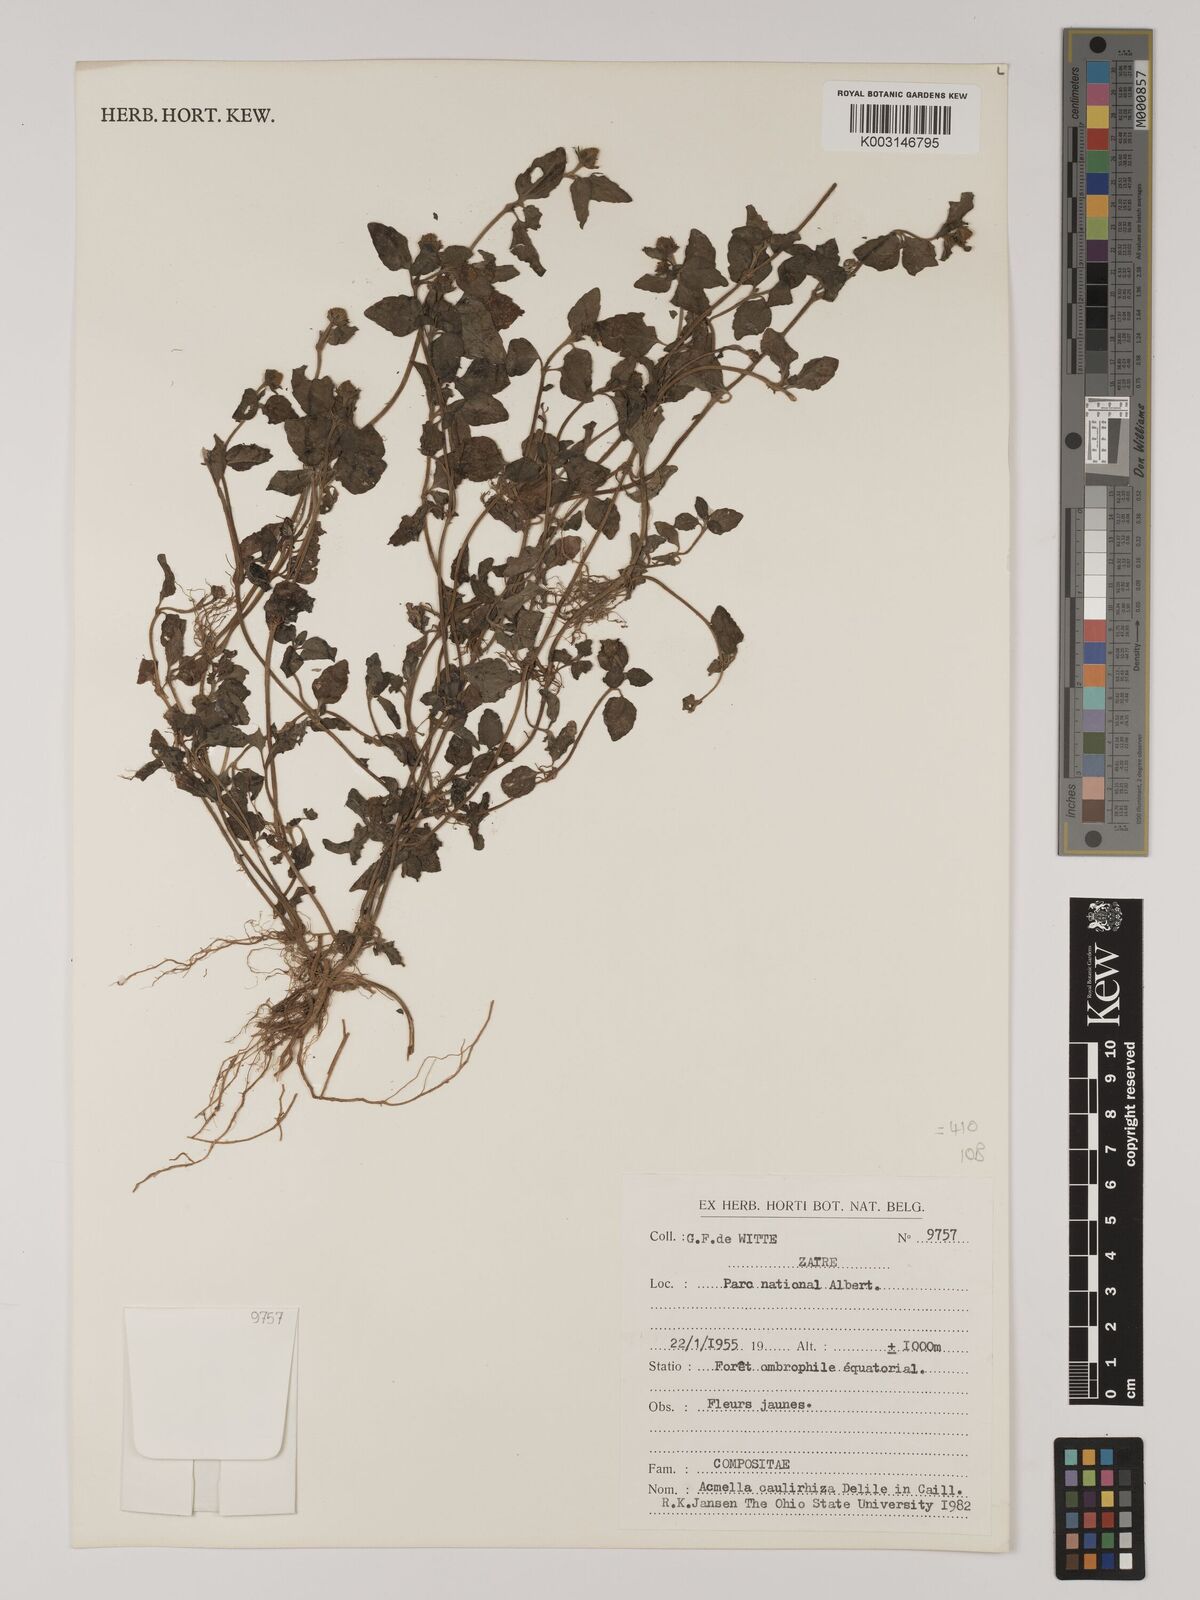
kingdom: Plantae
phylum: Tracheophyta
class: Magnoliopsida
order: Asterales
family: Asteraceae
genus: Acmella
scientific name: Acmella caulirhiza
